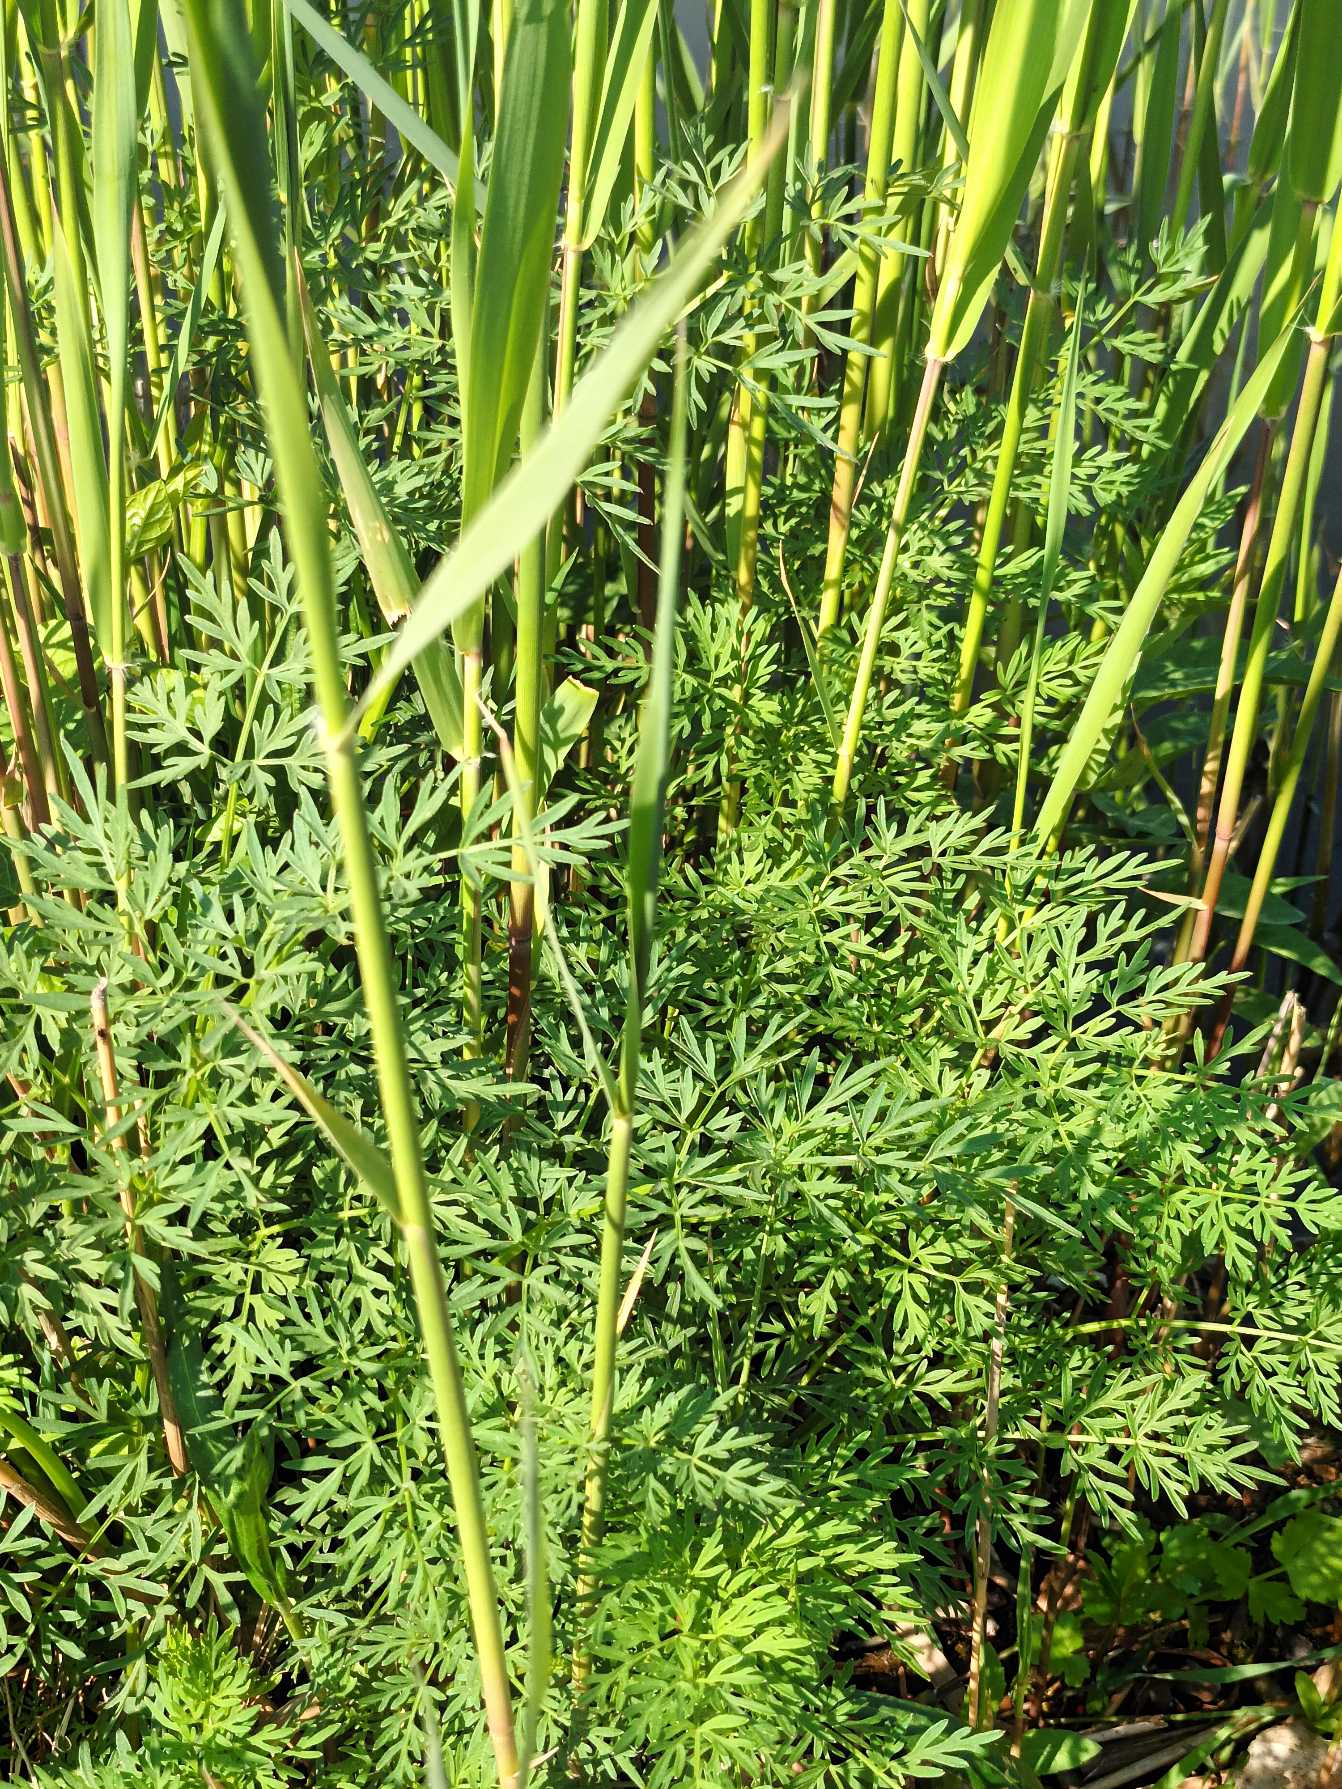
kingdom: Plantae
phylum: Tracheophyta
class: Magnoliopsida
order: Apiales
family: Apiaceae
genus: Thysselinum
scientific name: Thysselinum palustre
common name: Kær-svovlrod
